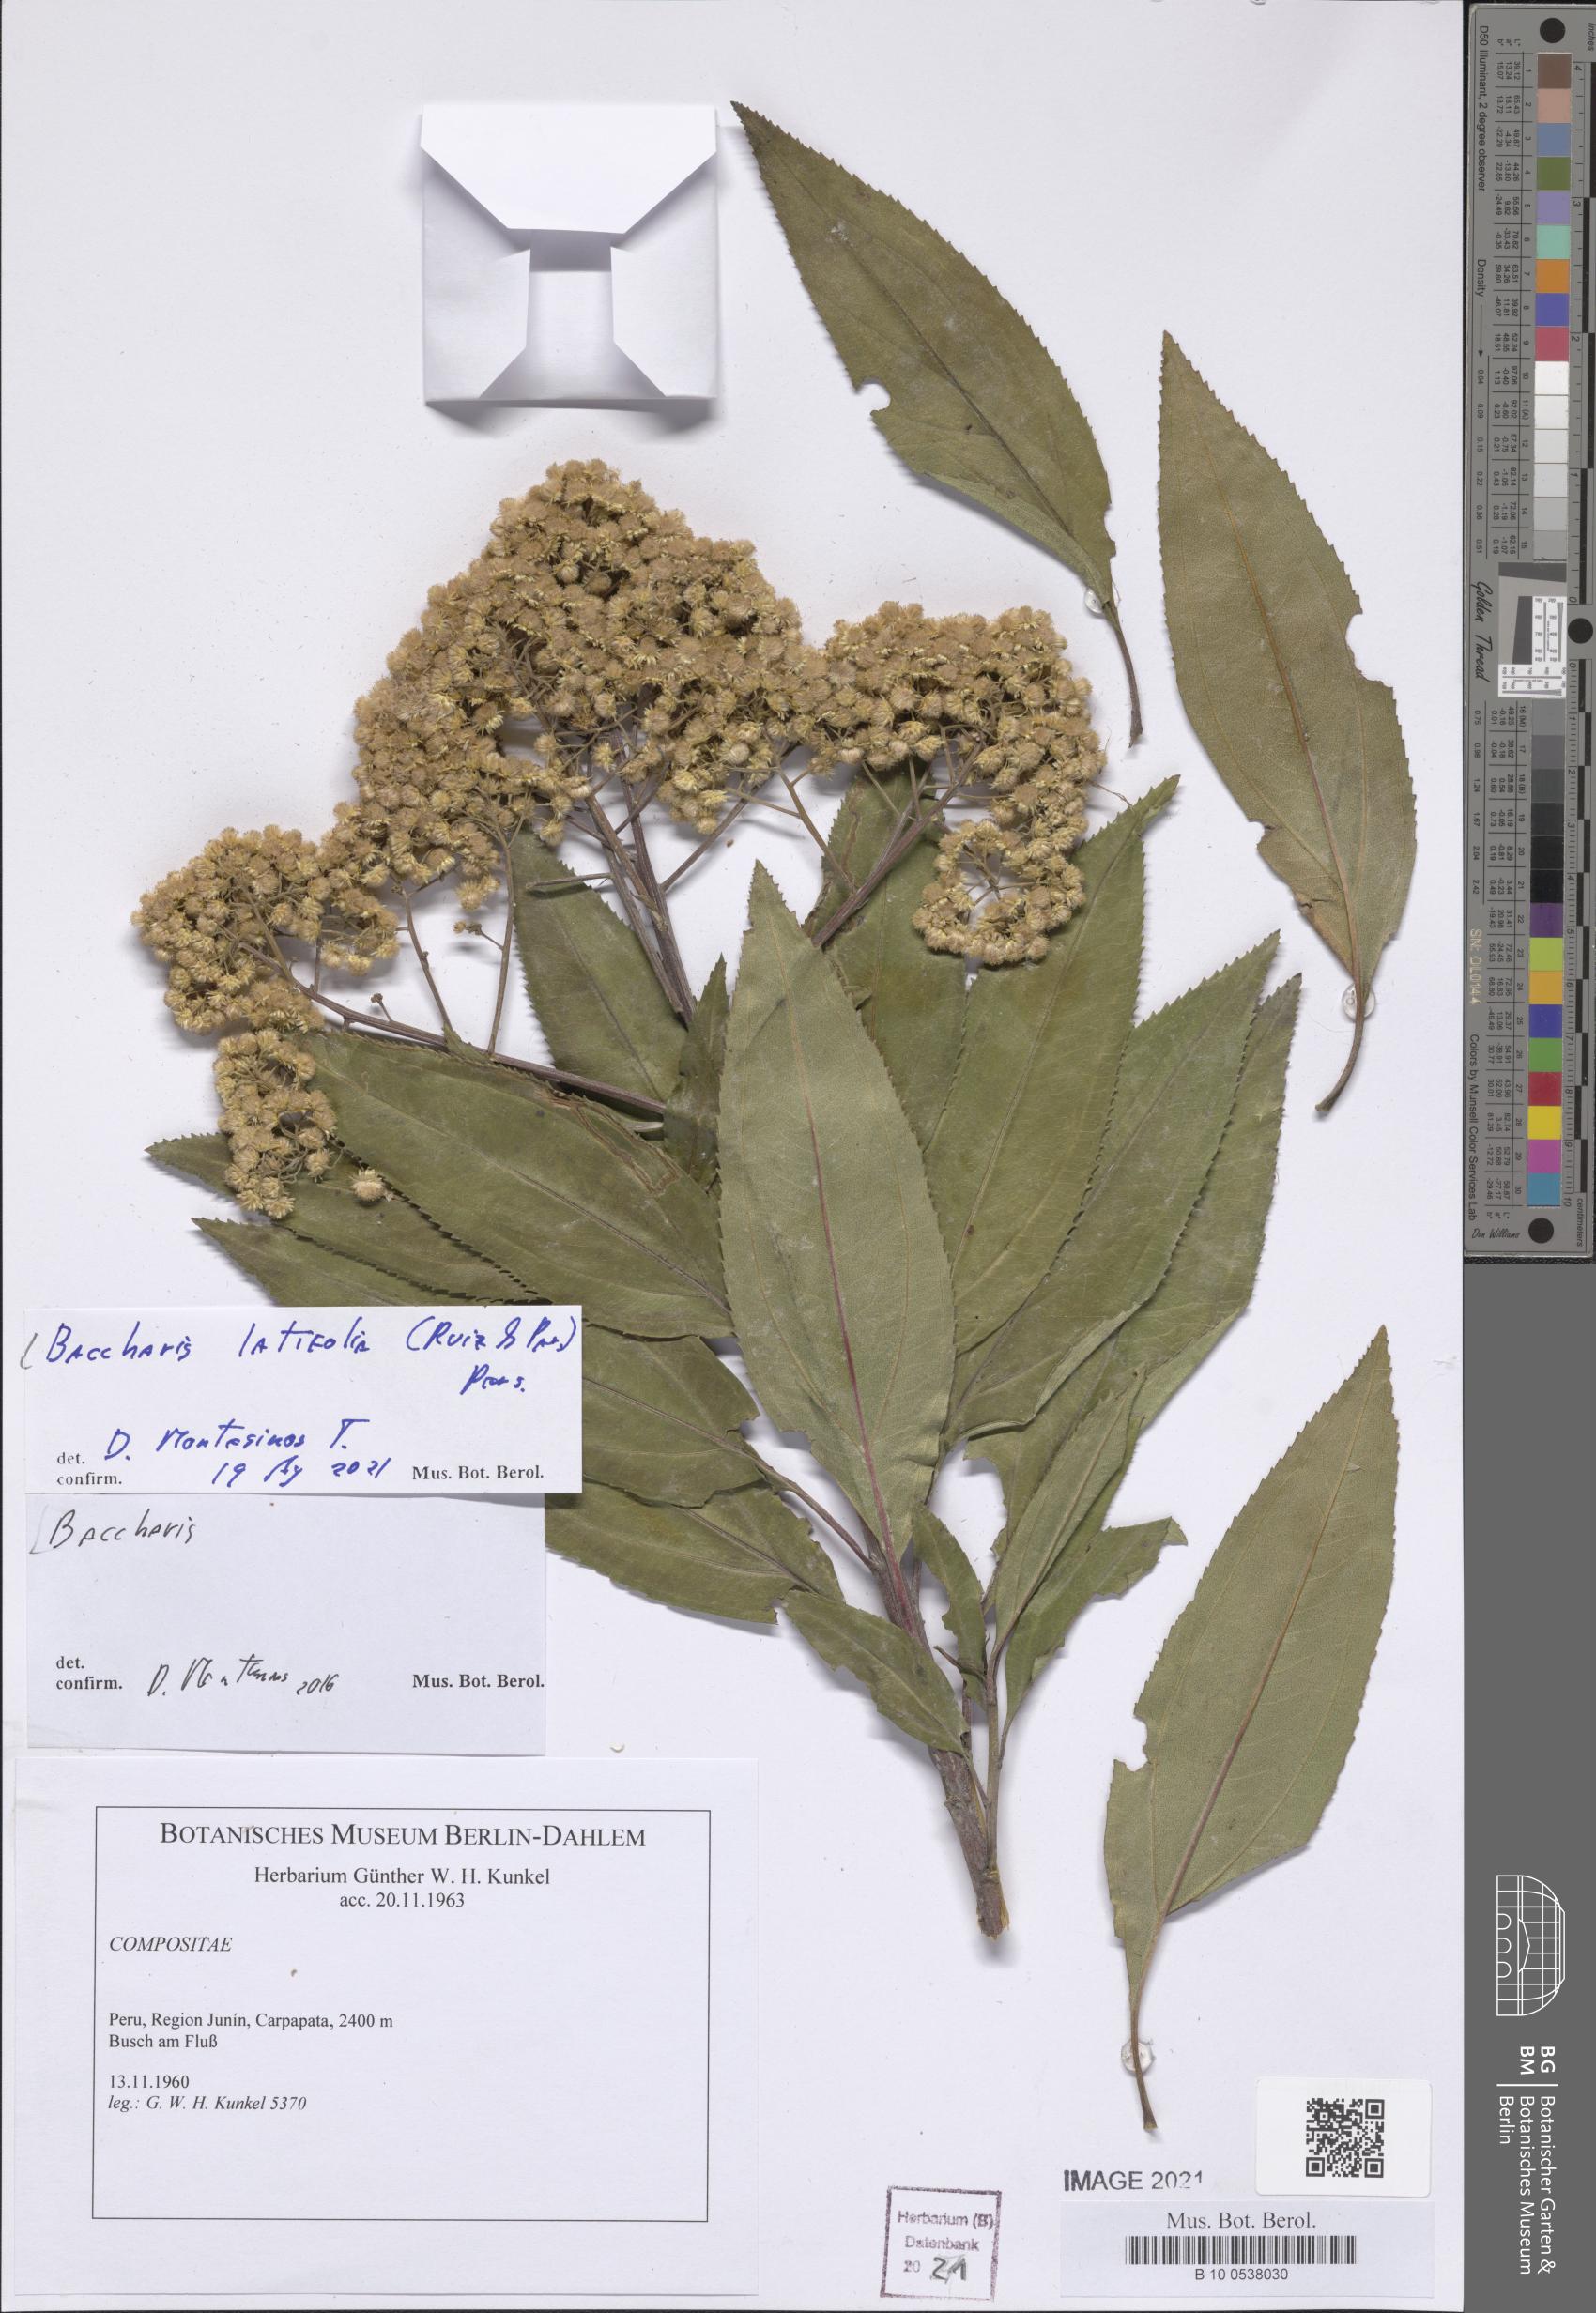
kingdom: Plantae
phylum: Tracheophyta
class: Magnoliopsida
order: Asterales
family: Asteraceae
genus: Baccharis
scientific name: Baccharis latifolia
